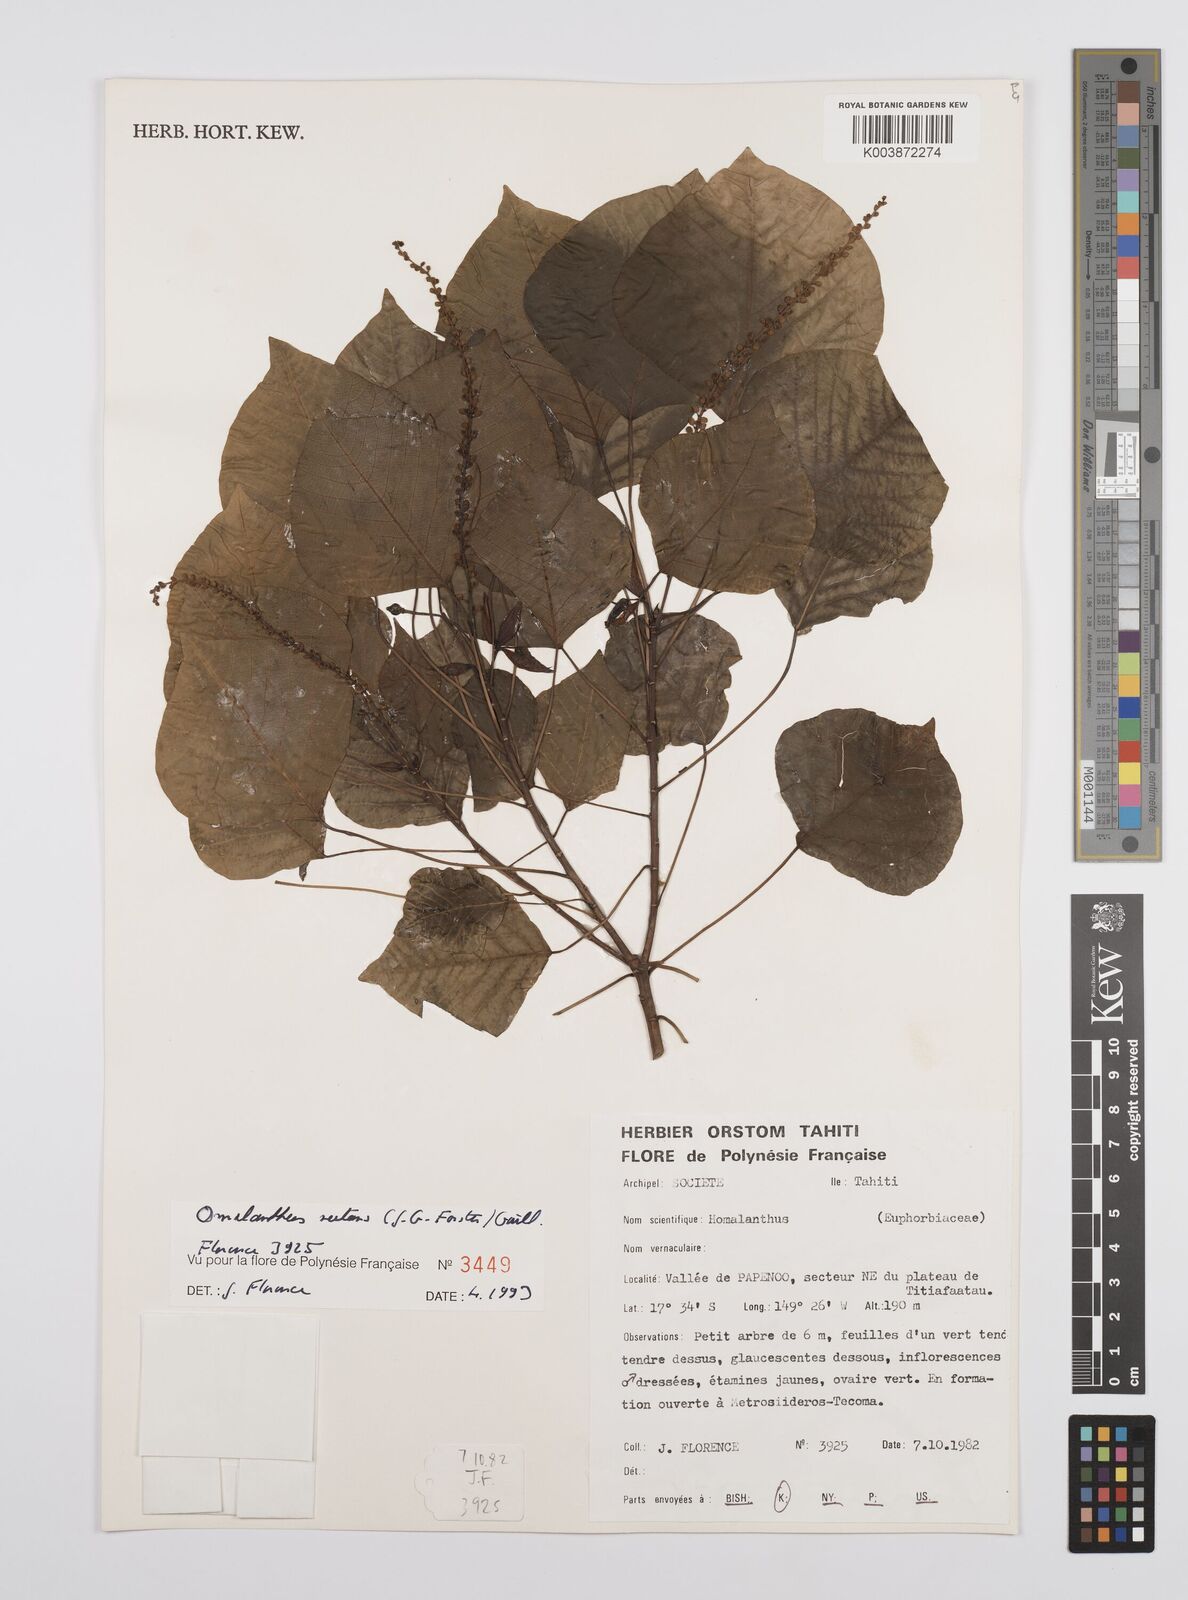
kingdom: Plantae
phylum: Tracheophyta
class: Magnoliopsida
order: Malpighiales
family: Euphorbiaceae
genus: Homalanthus
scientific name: Homalanthus nutans
